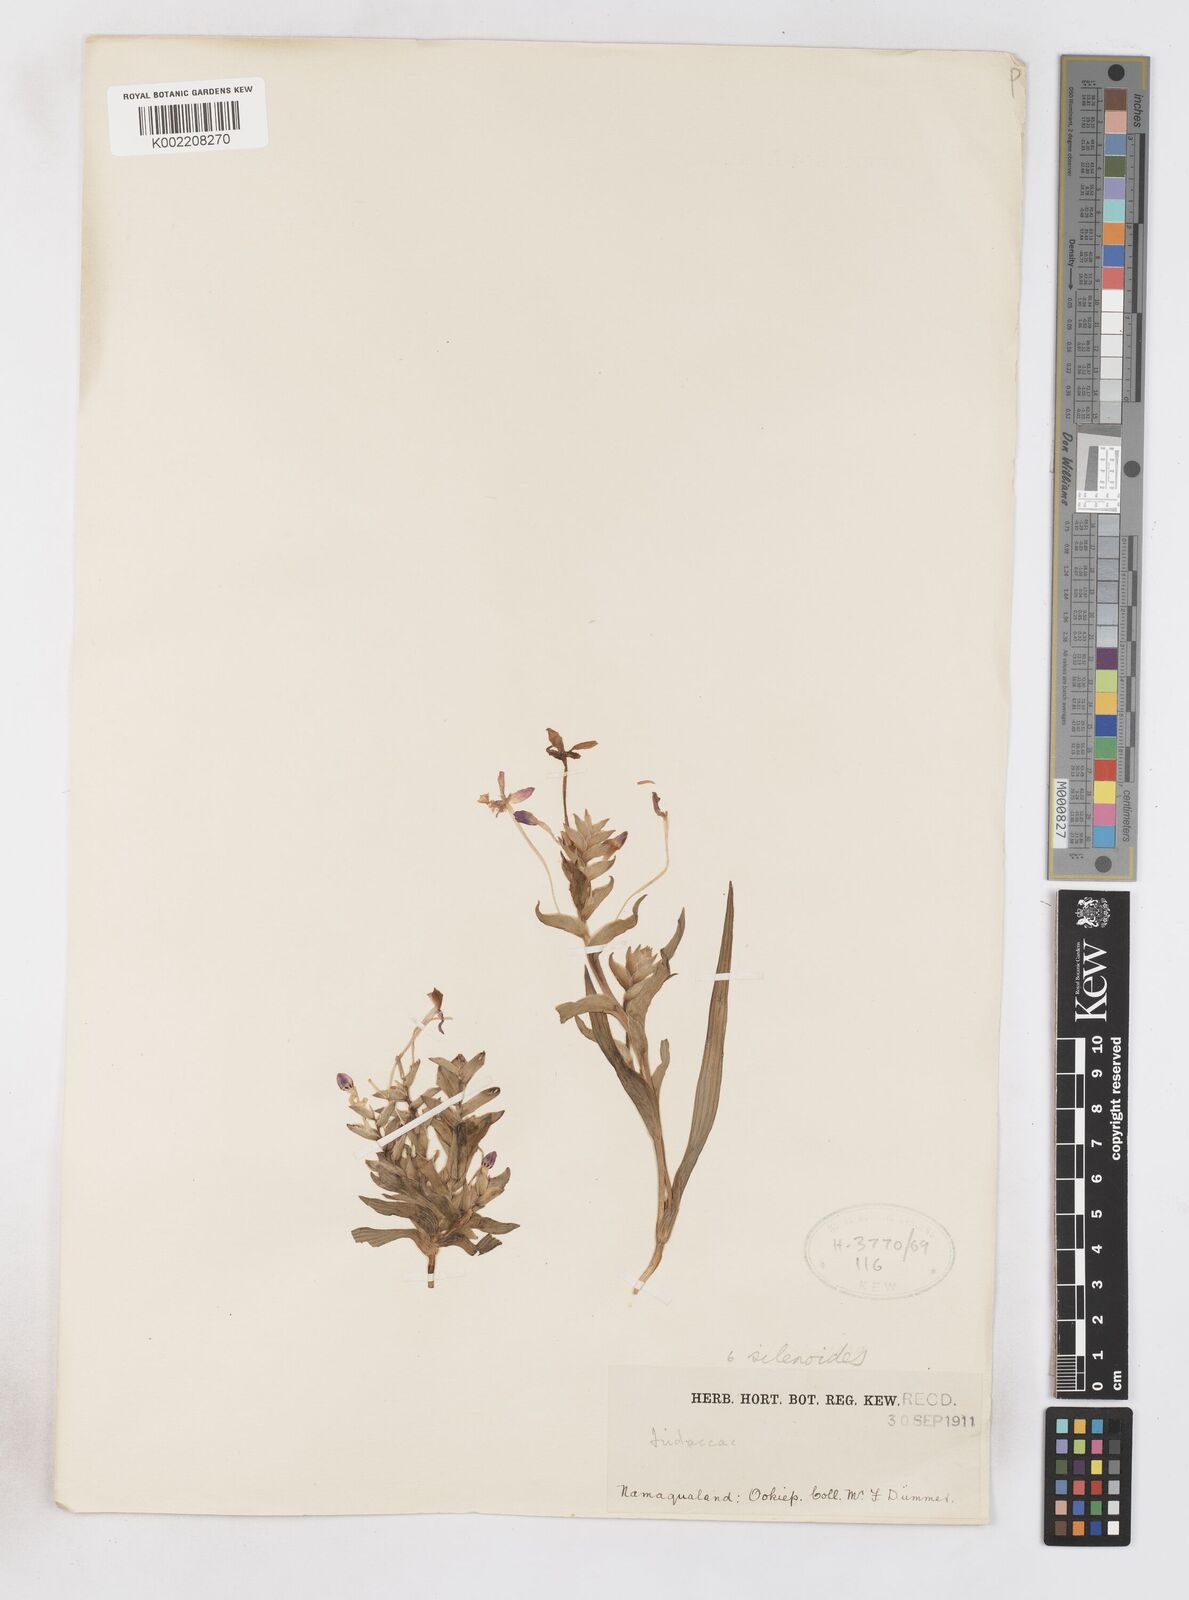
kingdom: Plantae
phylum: Tracheophyta
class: Liliopsida
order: Asparagales
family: Iridaceae
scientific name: Iridaceae
